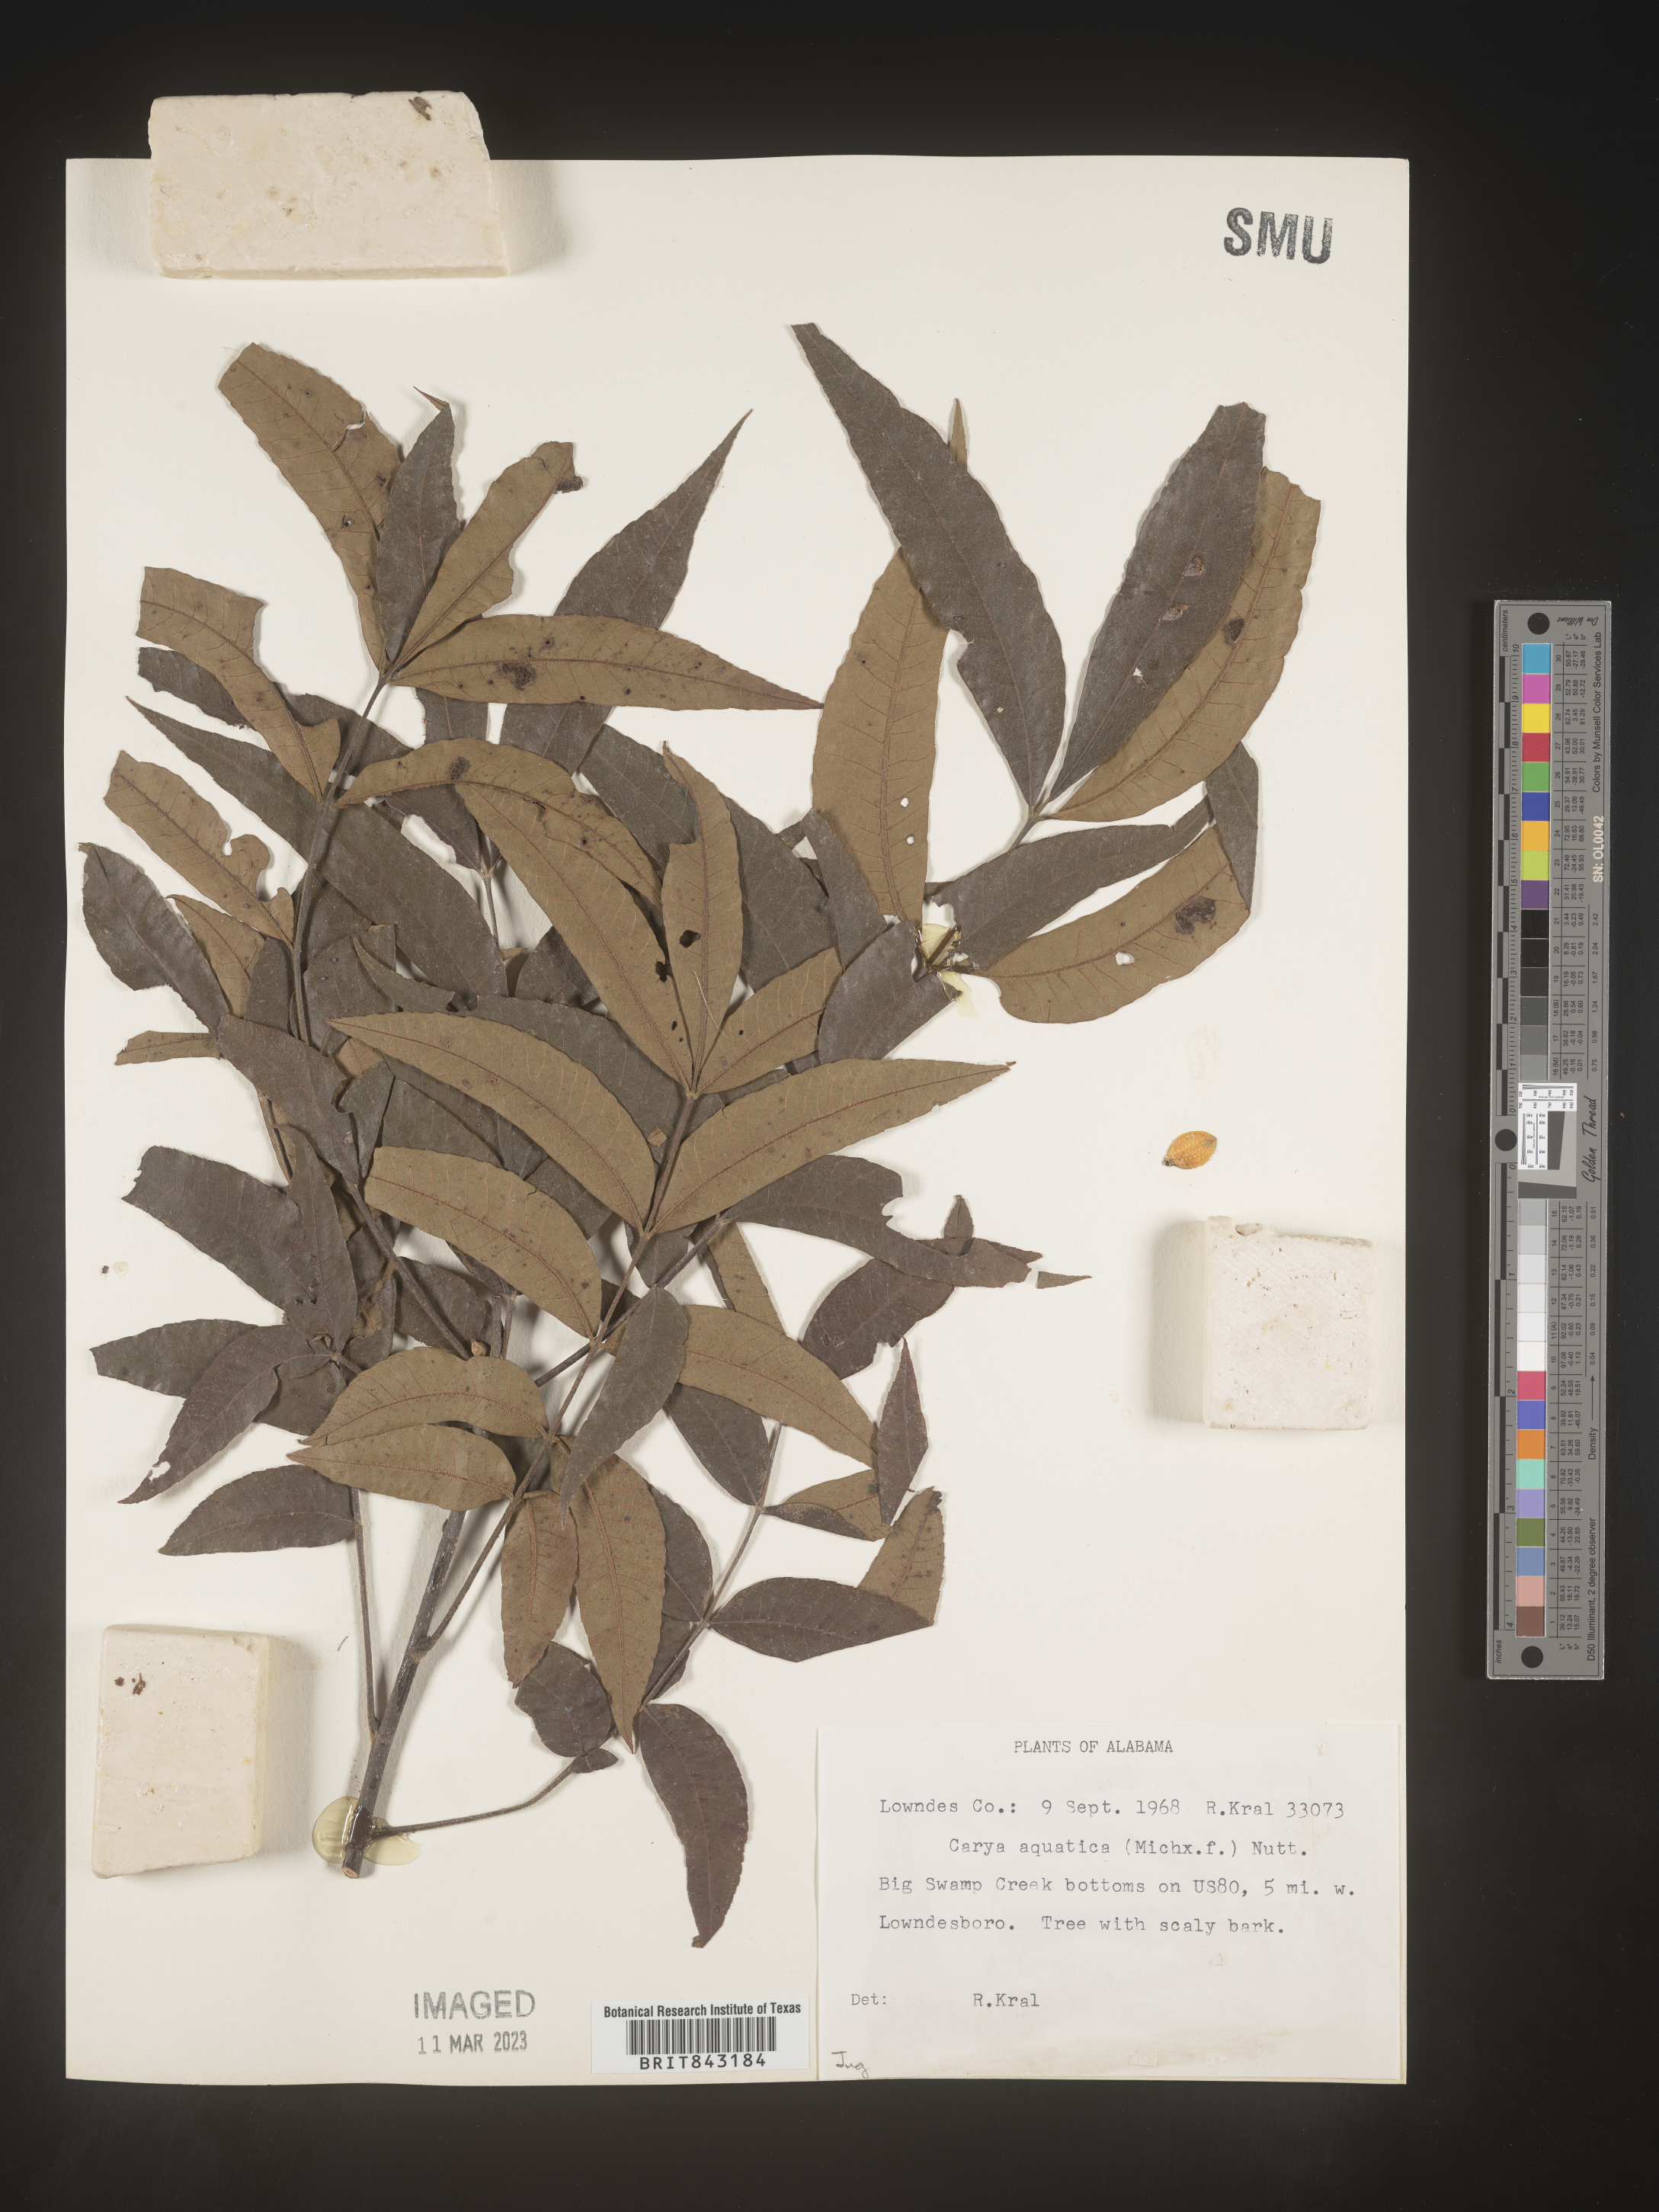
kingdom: Plantae
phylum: Tracheophyta
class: Magnoliopsida
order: Fagales
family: Juglandaceae
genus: Carya
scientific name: Carya aquatica
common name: Water hickory
